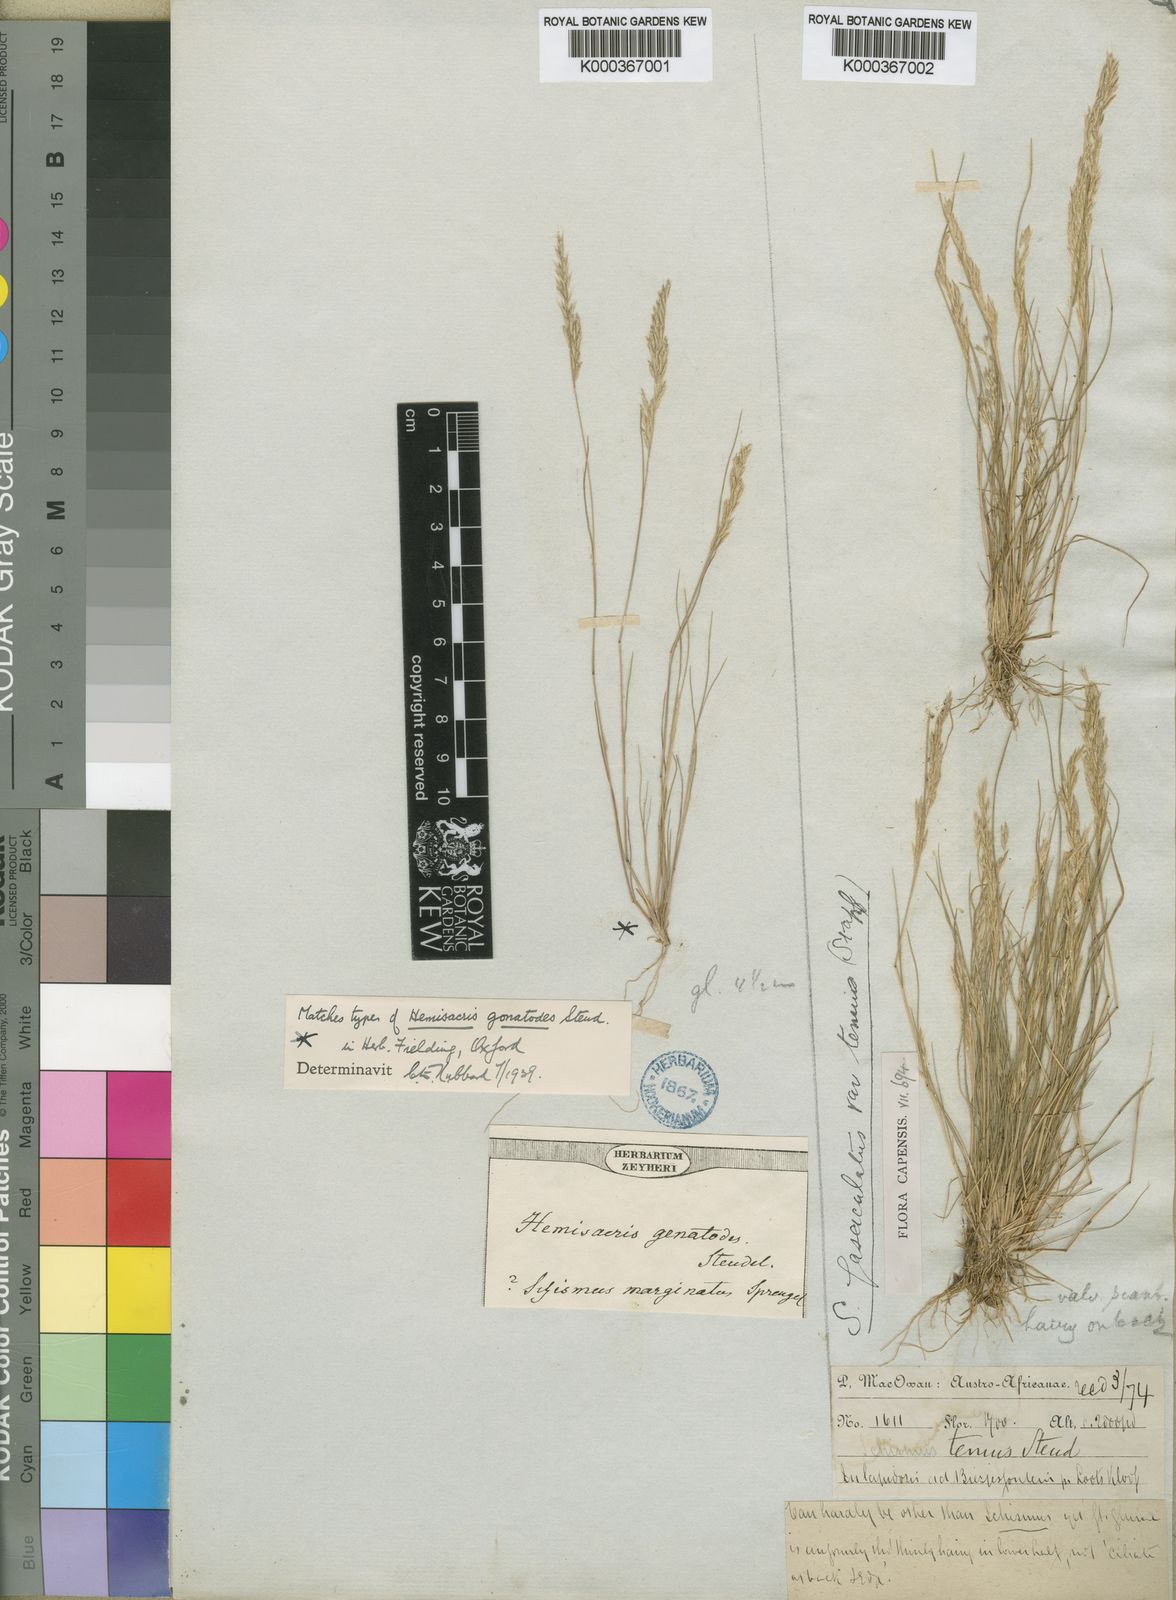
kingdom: Plantae
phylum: Tracheophyta
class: Liliopsida
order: Poales
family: Poaceae
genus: Schismus
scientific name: Schismus barbatus
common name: Kelch-grass
